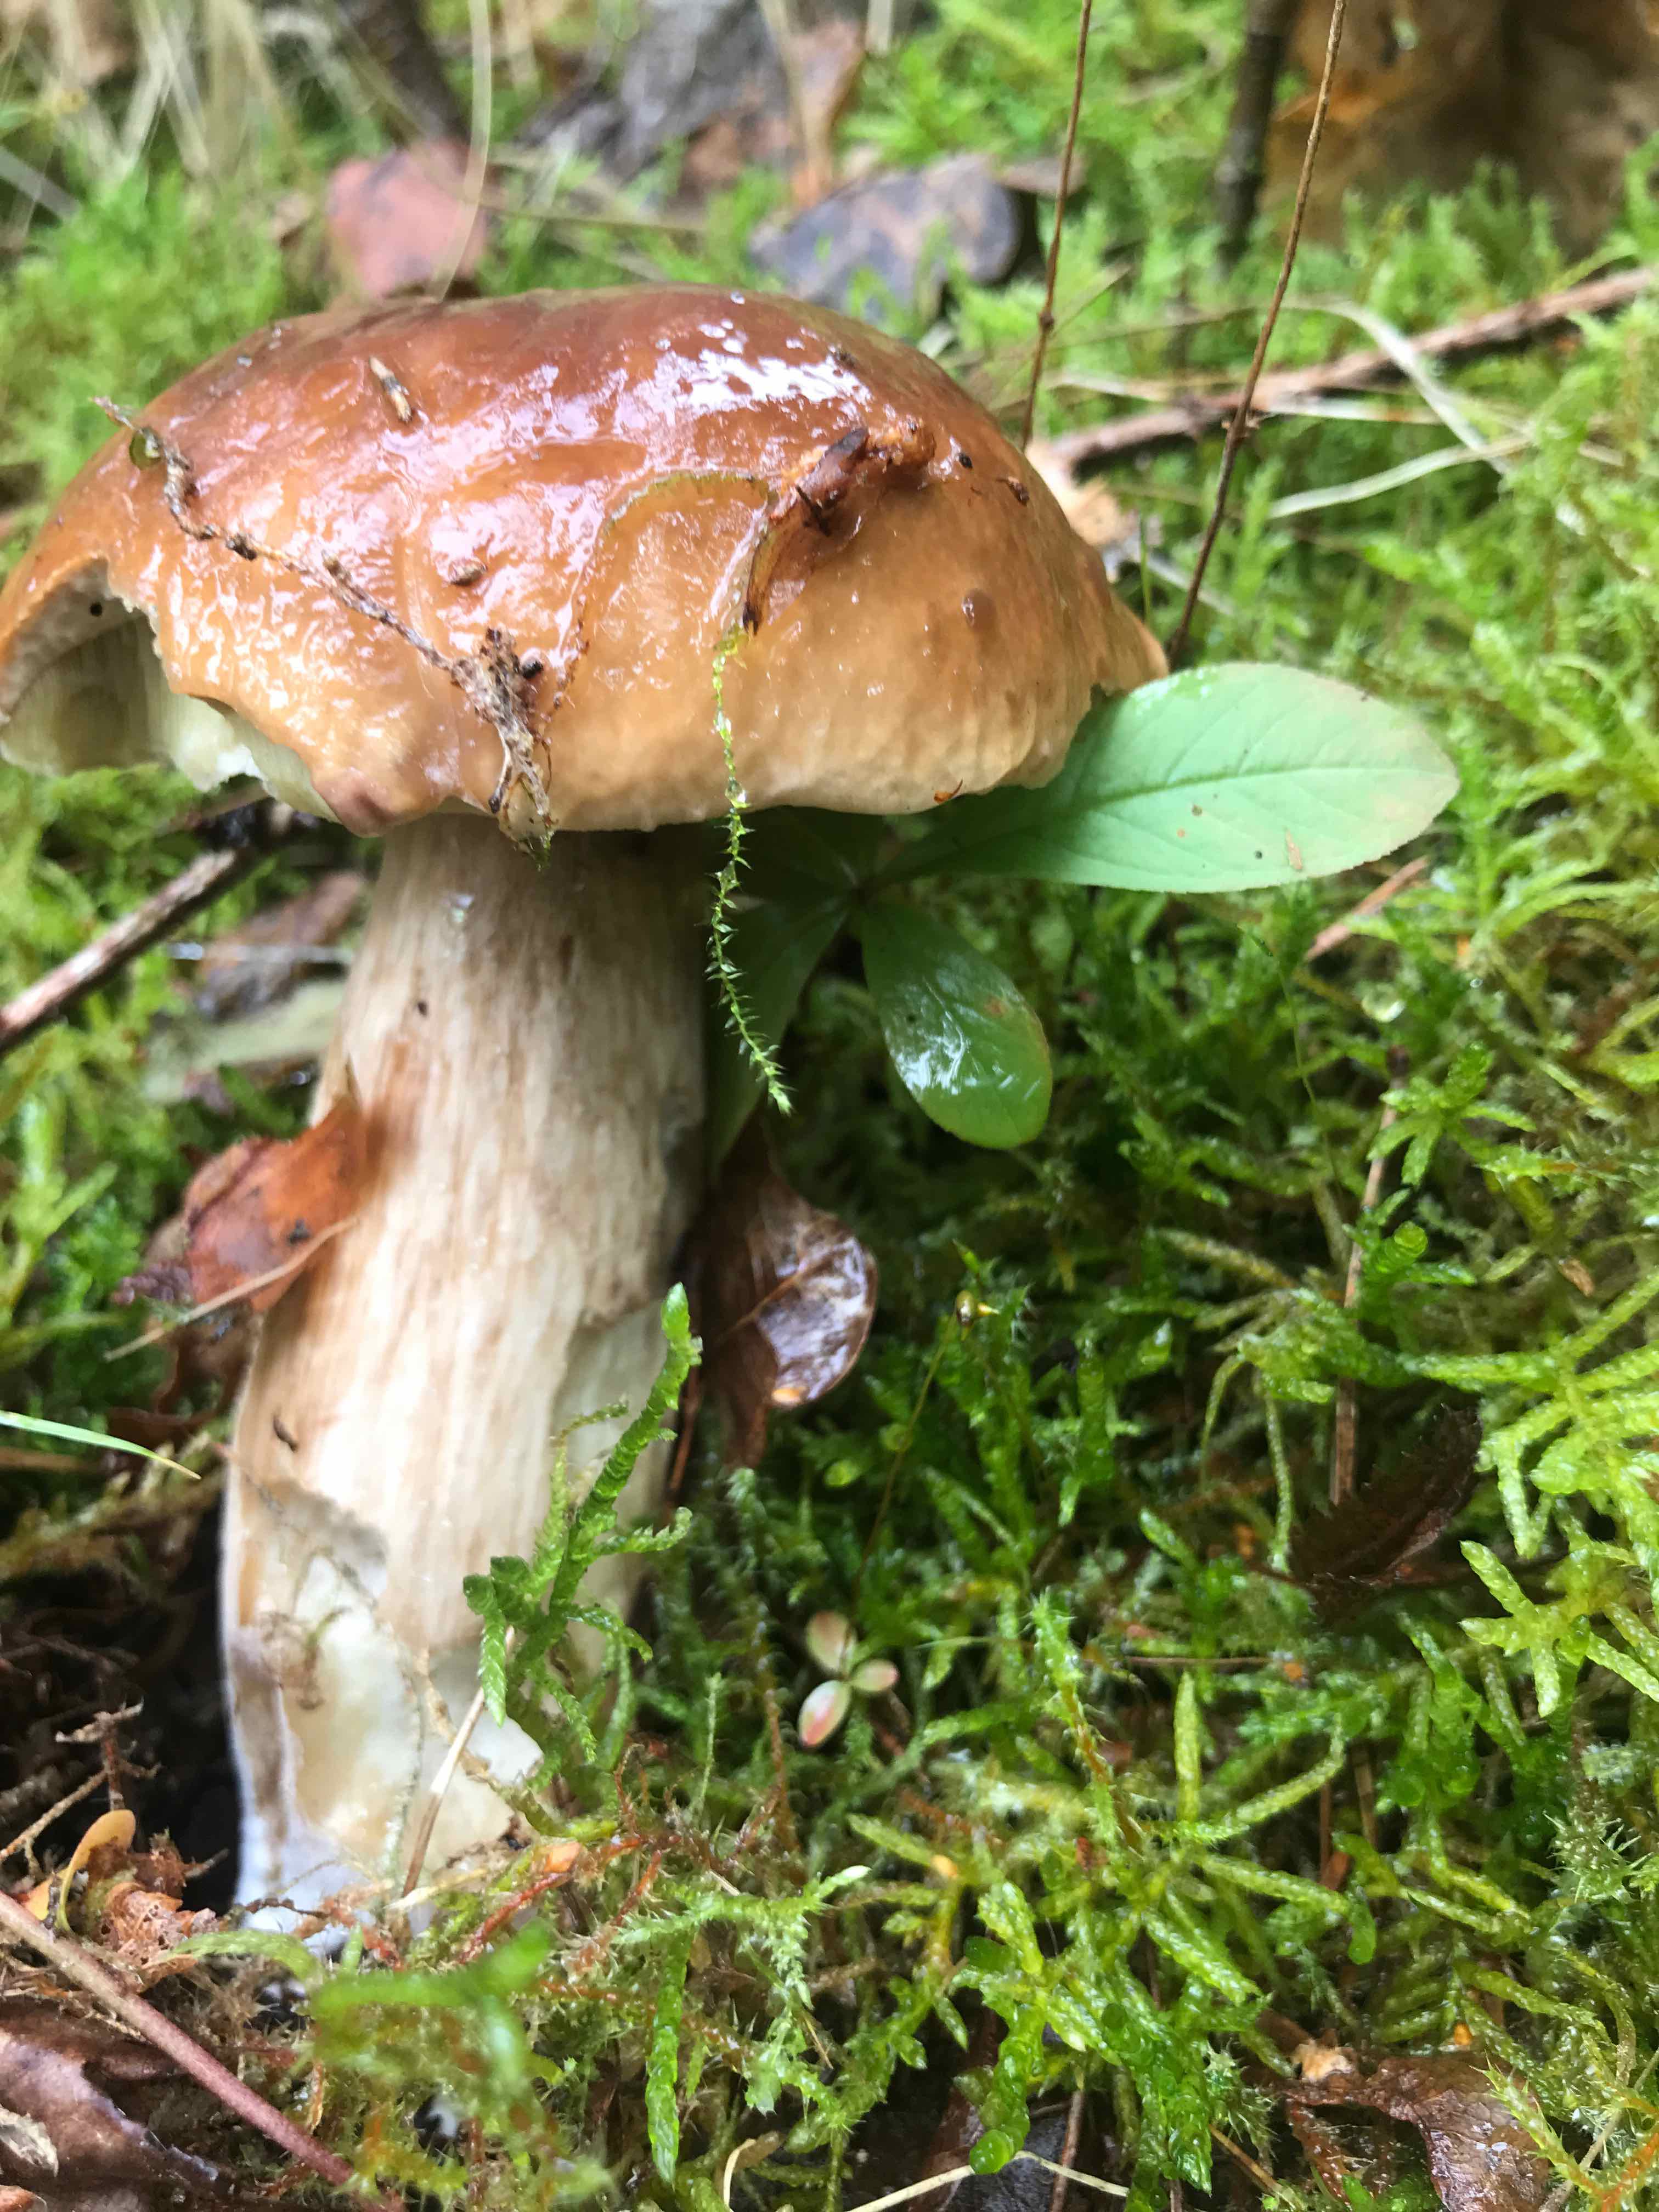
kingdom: Fungi
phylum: Basidiomycota
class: Agaricomycetes
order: Boletales
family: Boletaceae
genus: Boletus
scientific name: Boletus edulis
